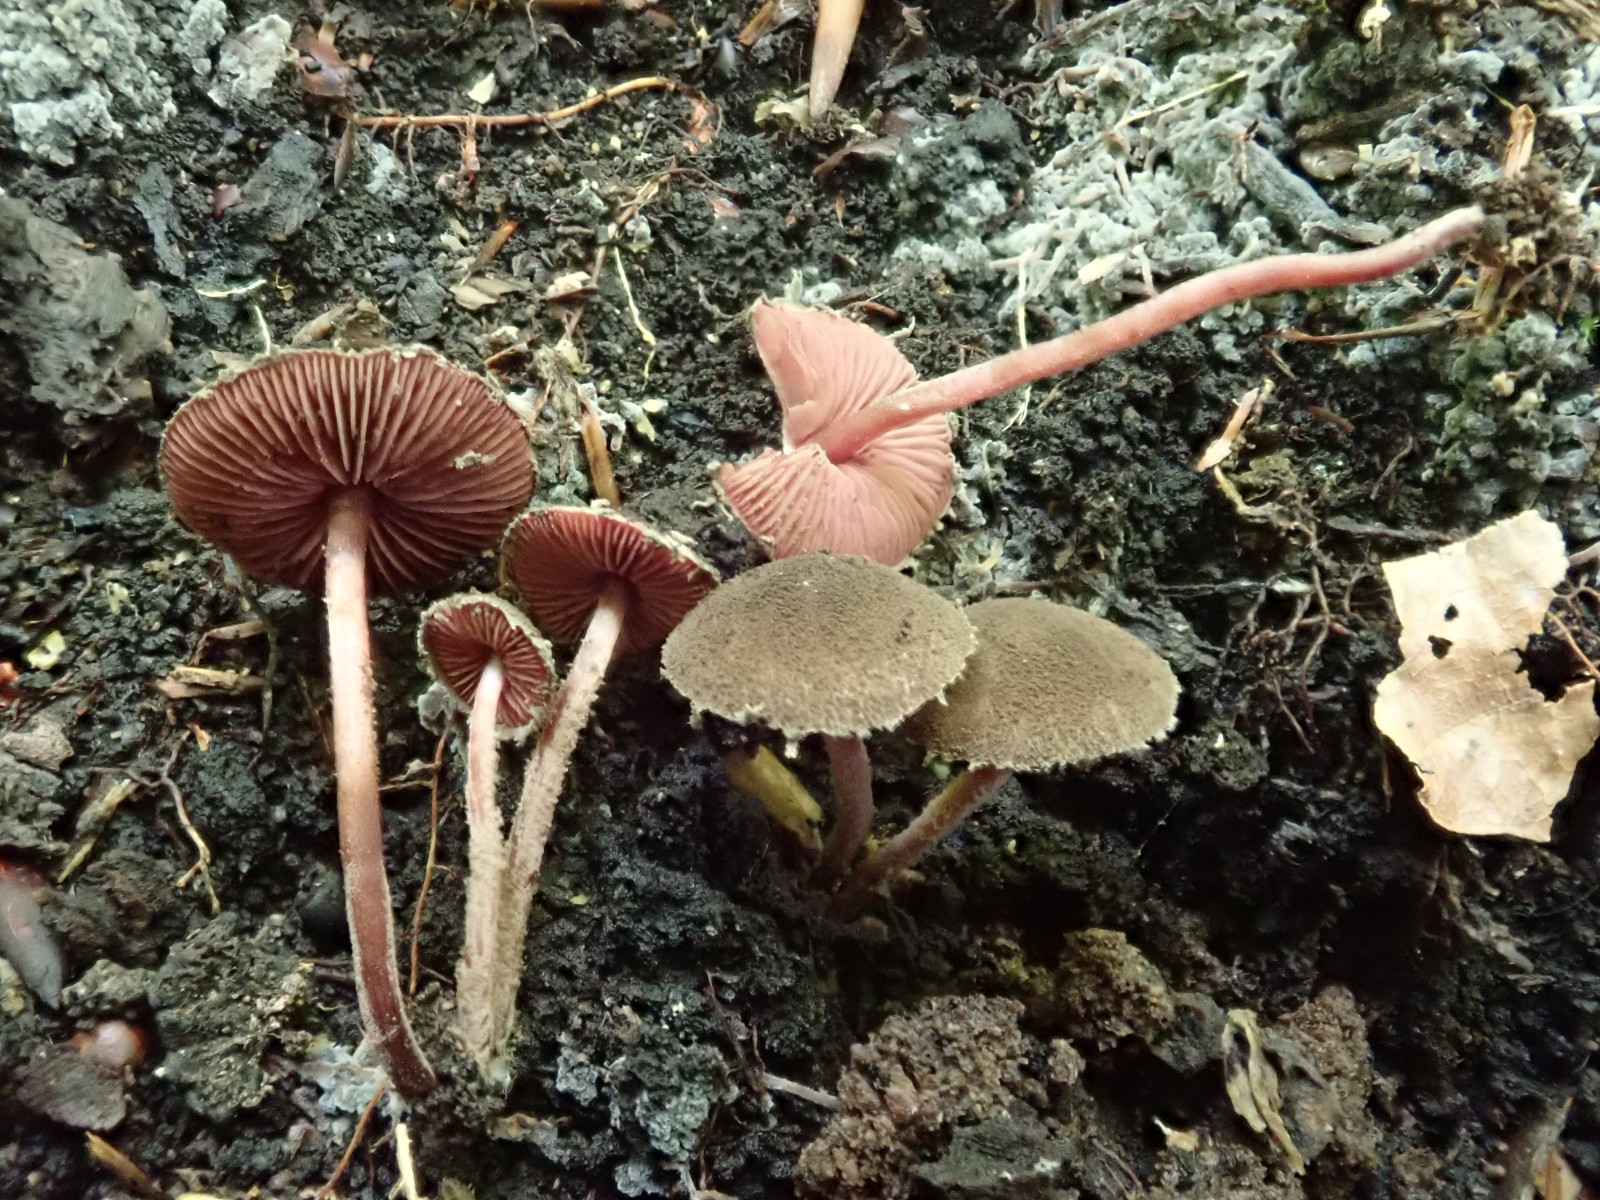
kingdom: Fungi
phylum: Basidiomycota
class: Agaricomycetes
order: Agaricales
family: Agaricaceae
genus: Melanophyllum
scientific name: Melanophyllum haematospermum
